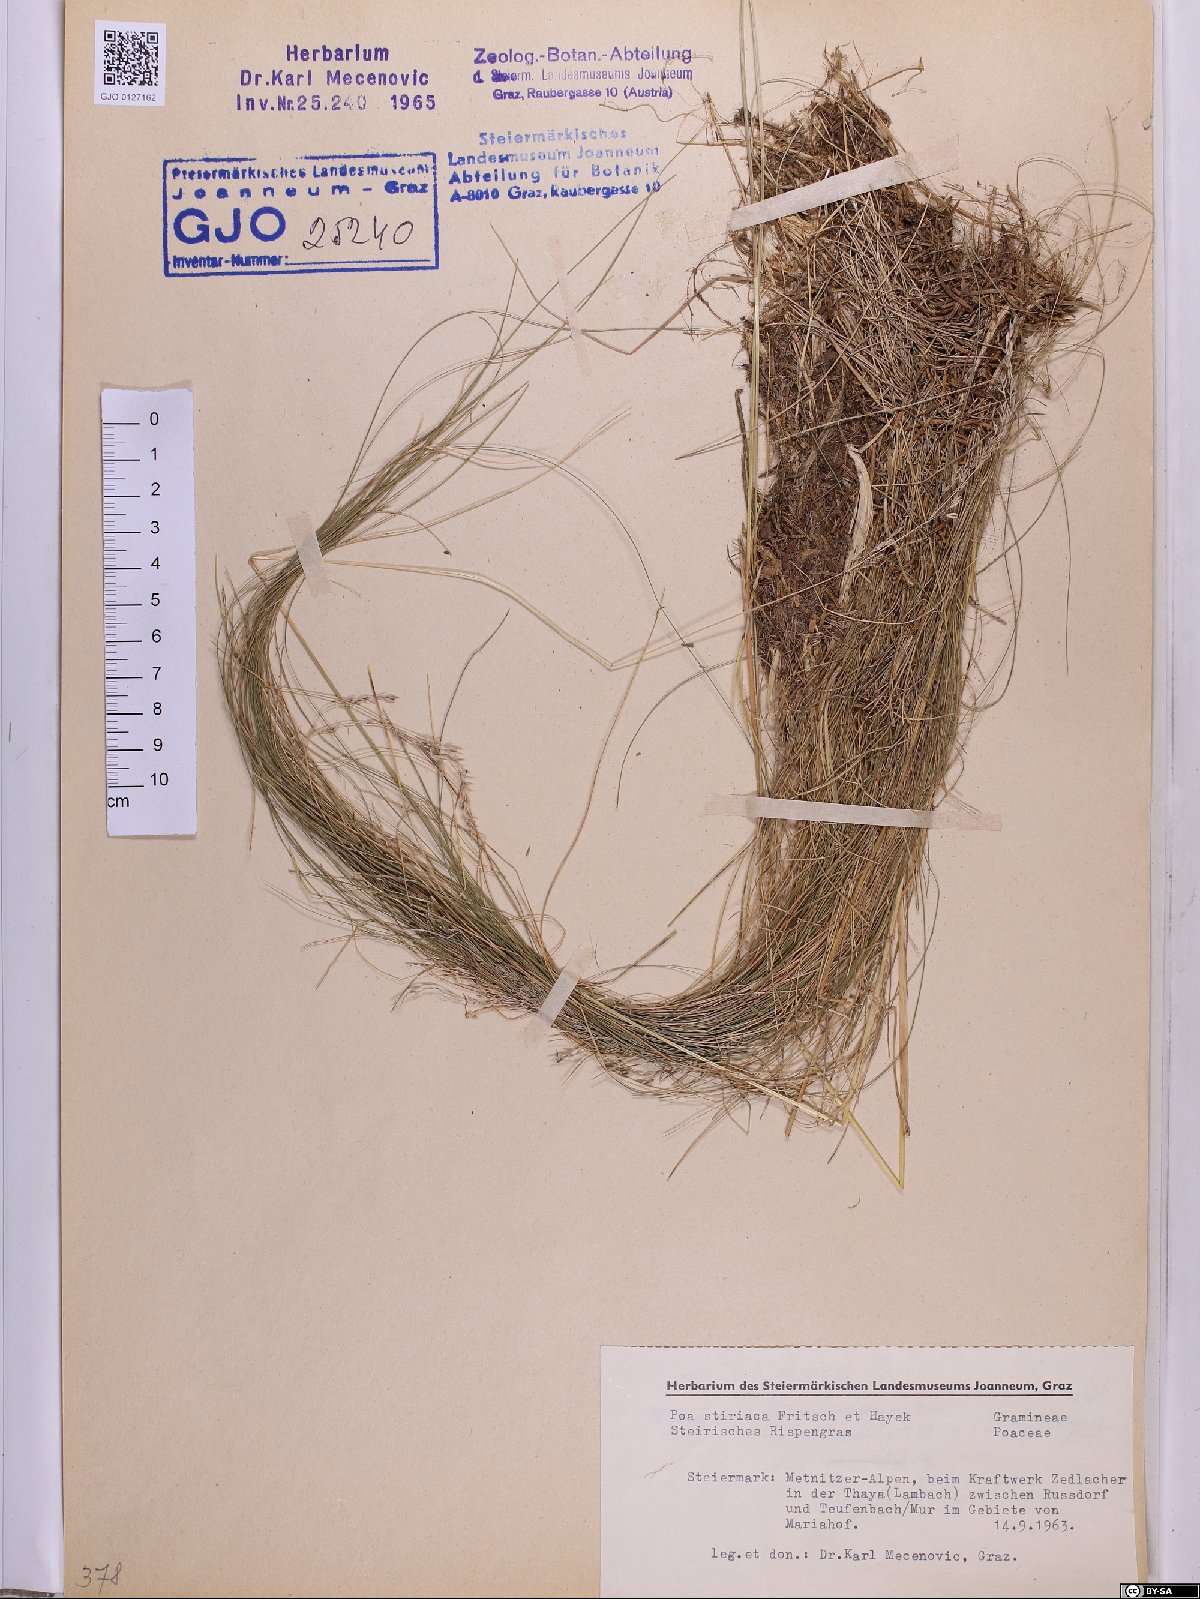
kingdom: Plantae
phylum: Tracheophyta
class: Liliopsida
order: Poales
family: Poaceae
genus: Poa
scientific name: Poa stiriaca
